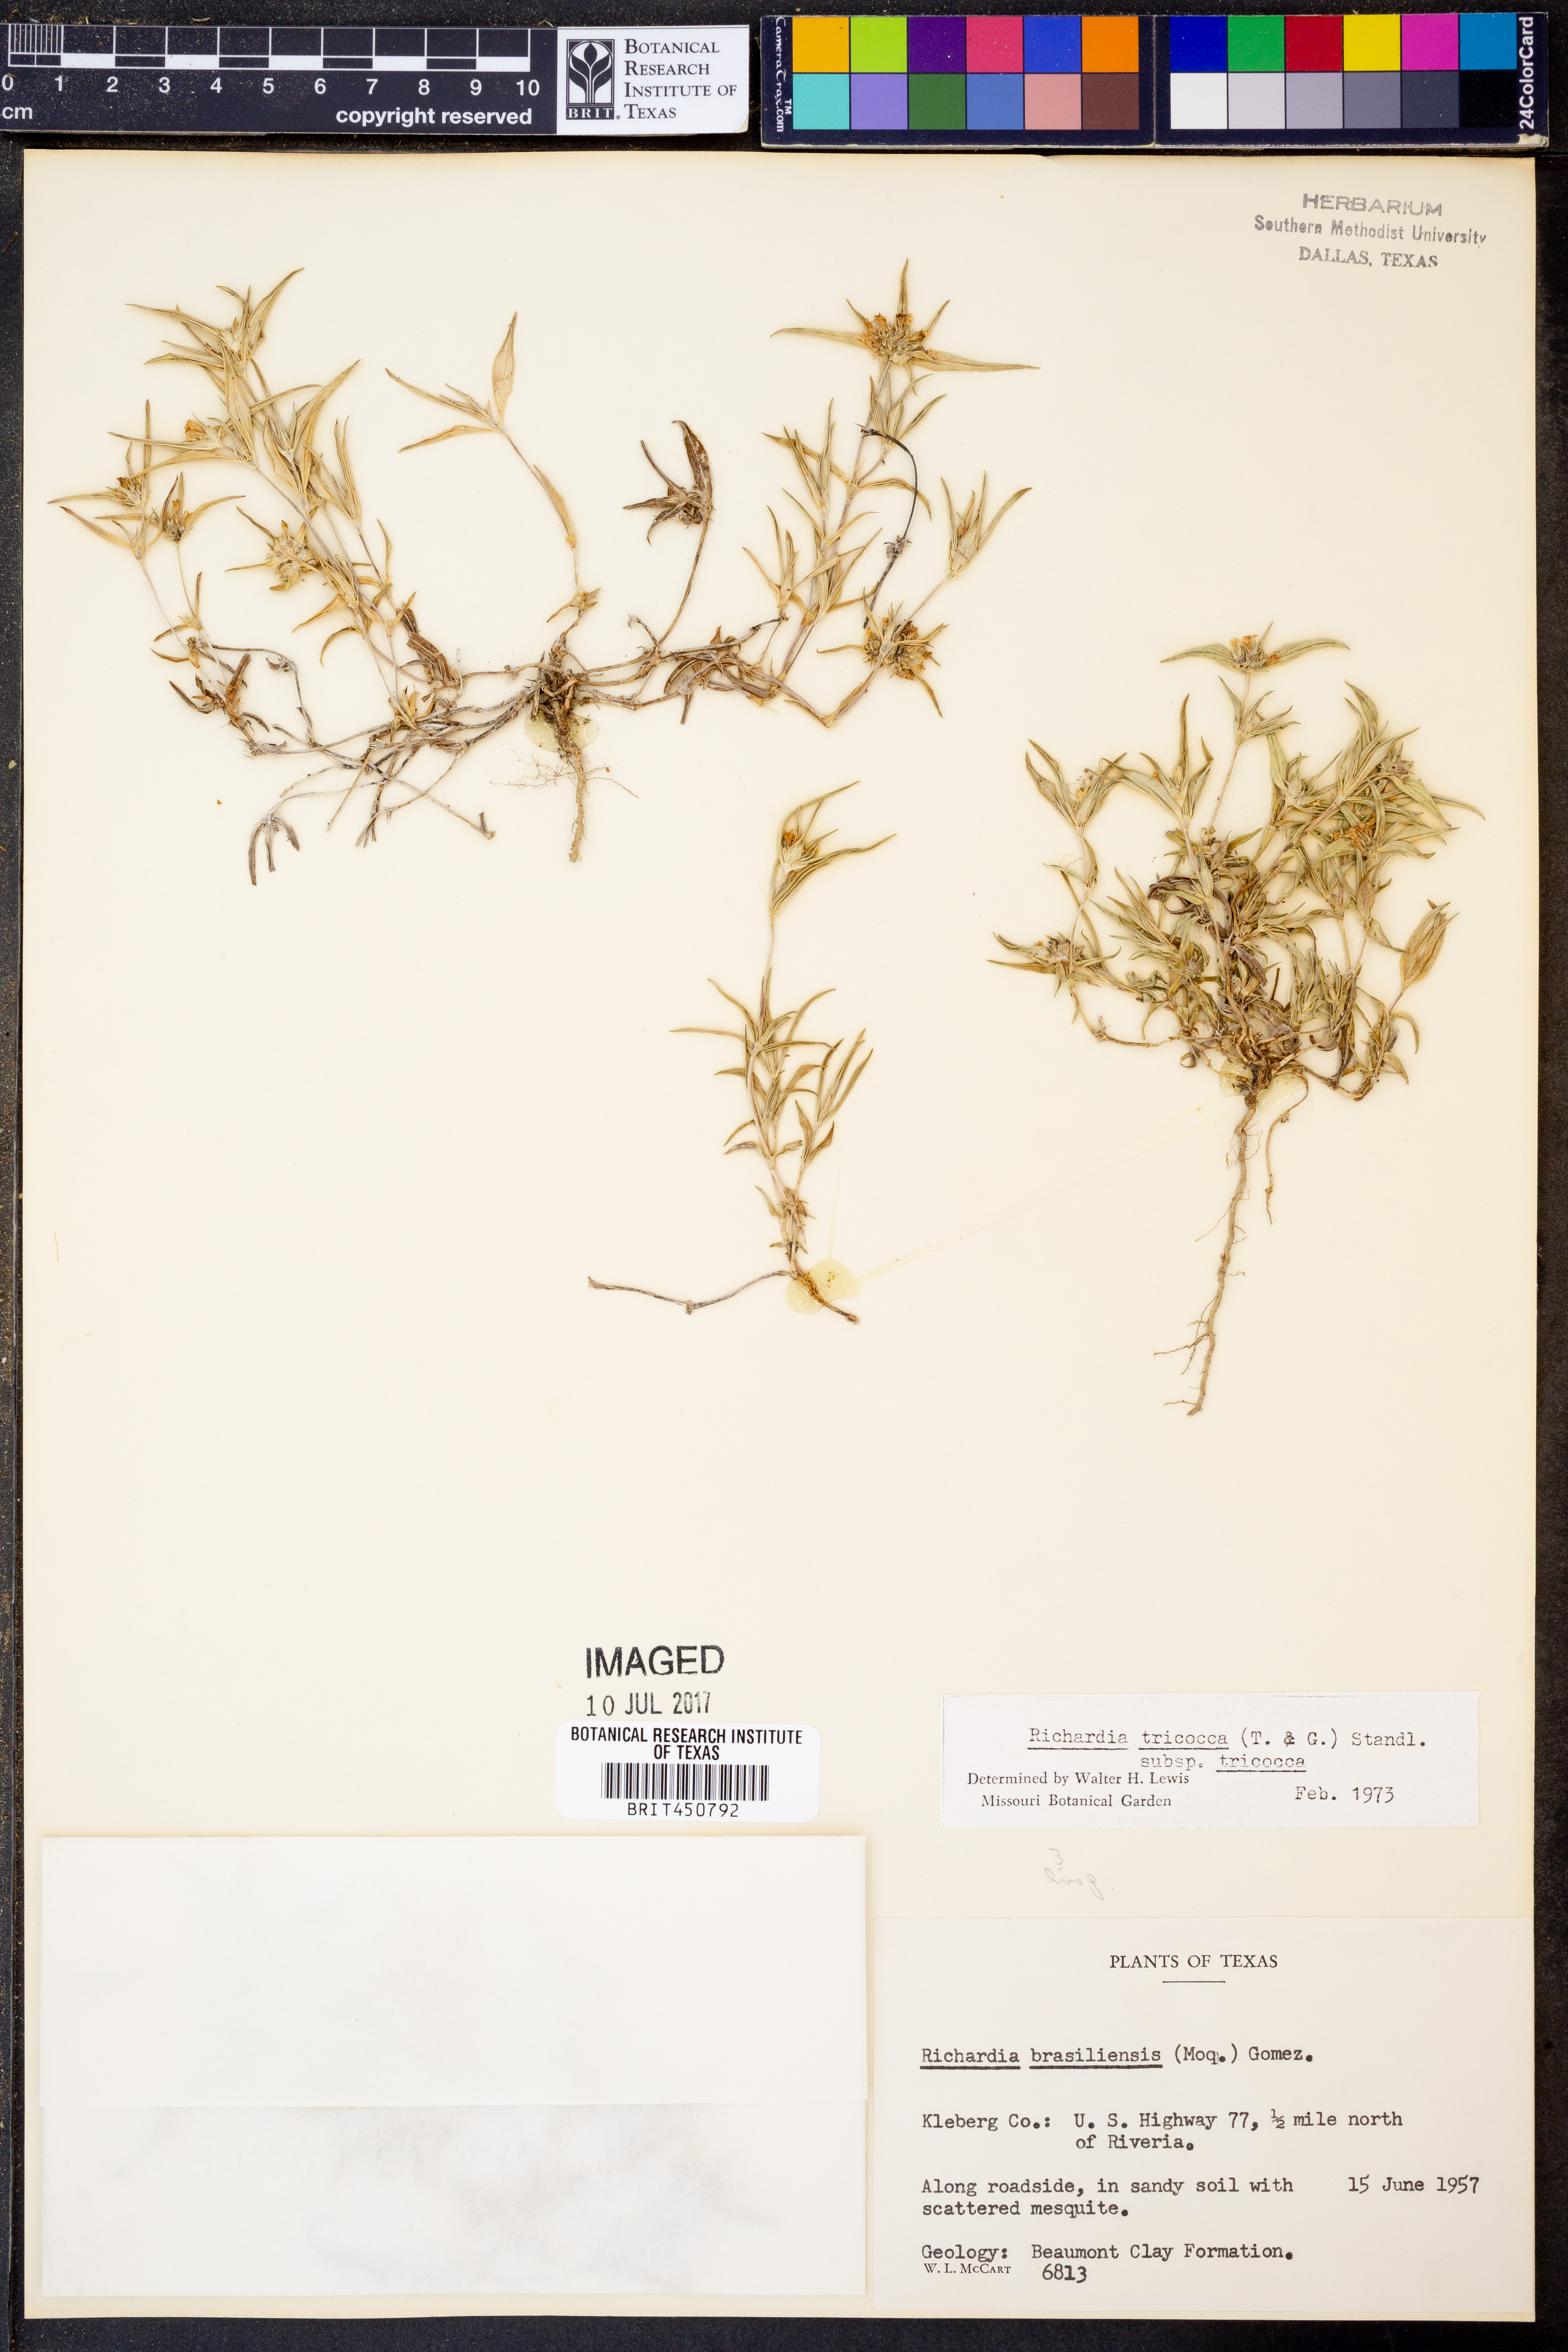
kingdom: Plantae
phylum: Tracheophyta
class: Magnoliopsida
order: Gentianales
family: Rubiaceae
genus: Richardia
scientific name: Richardia tricocca
